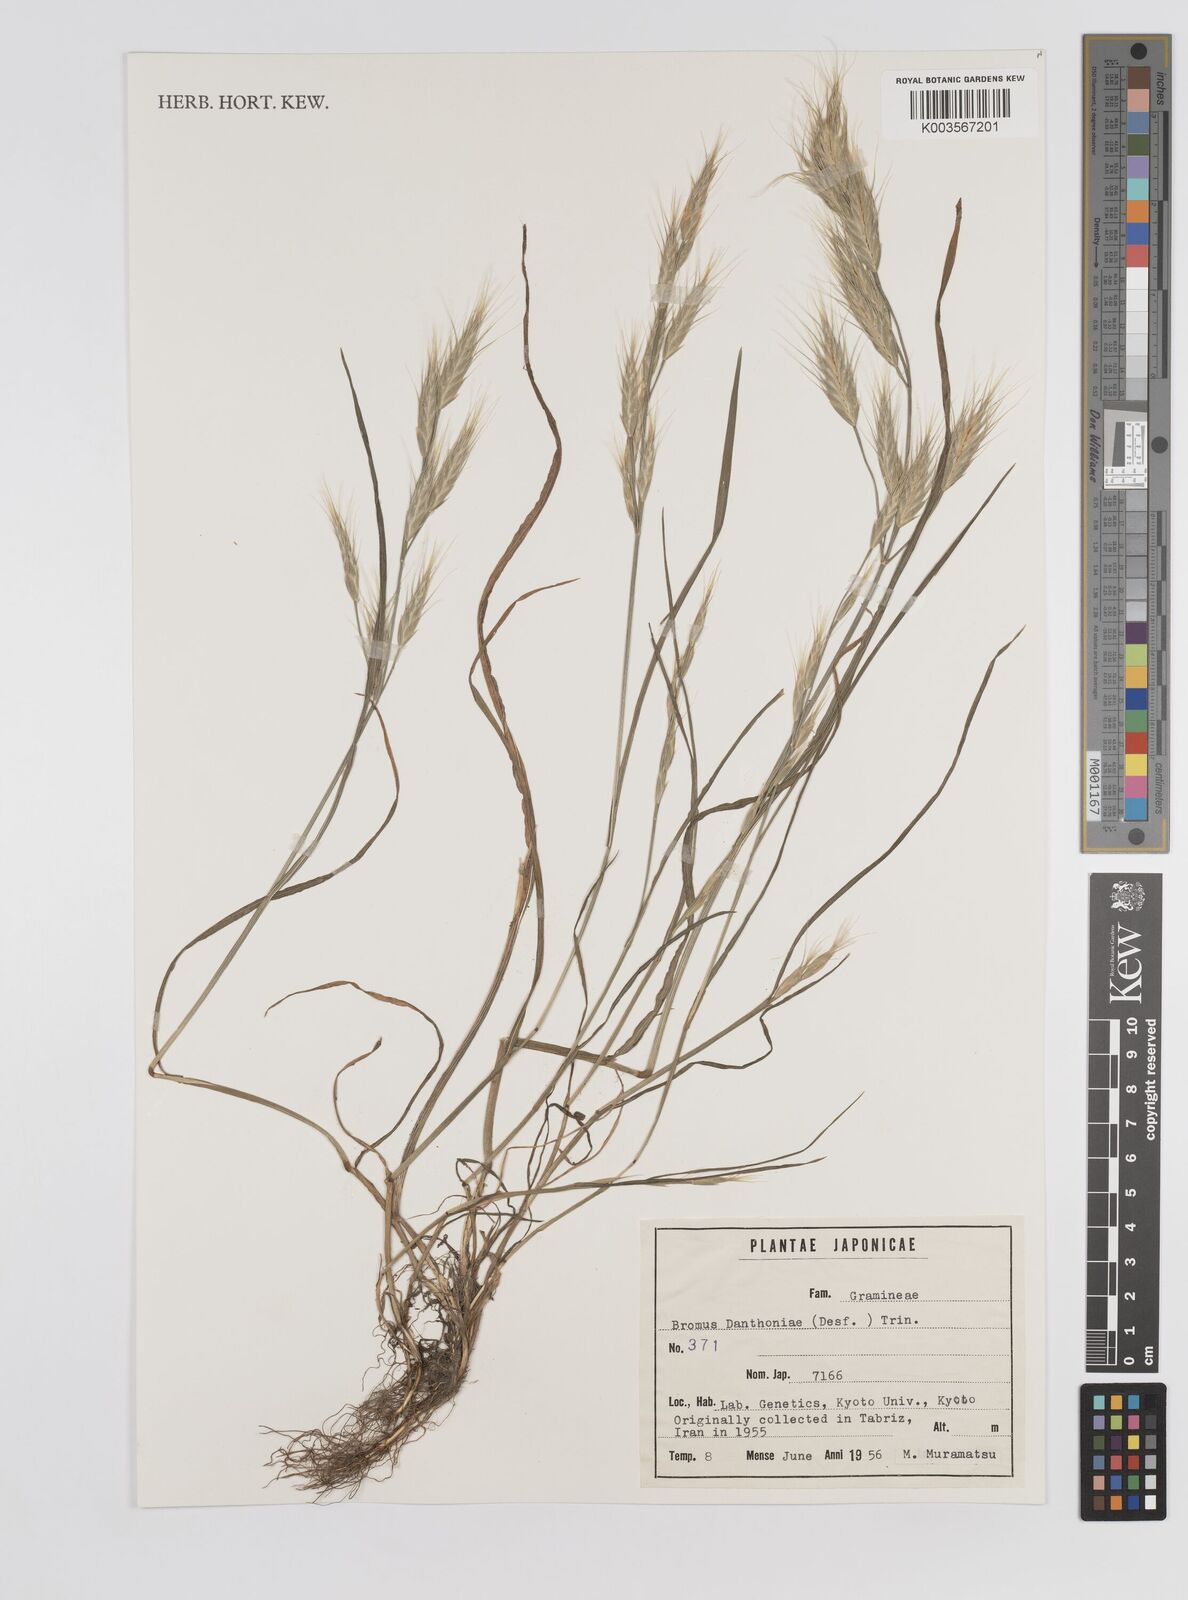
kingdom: Plantae
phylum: Tracheophyta
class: Liliopsida
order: Poales
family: Poaceae
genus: Bromus
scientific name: Bromus danthoniae
